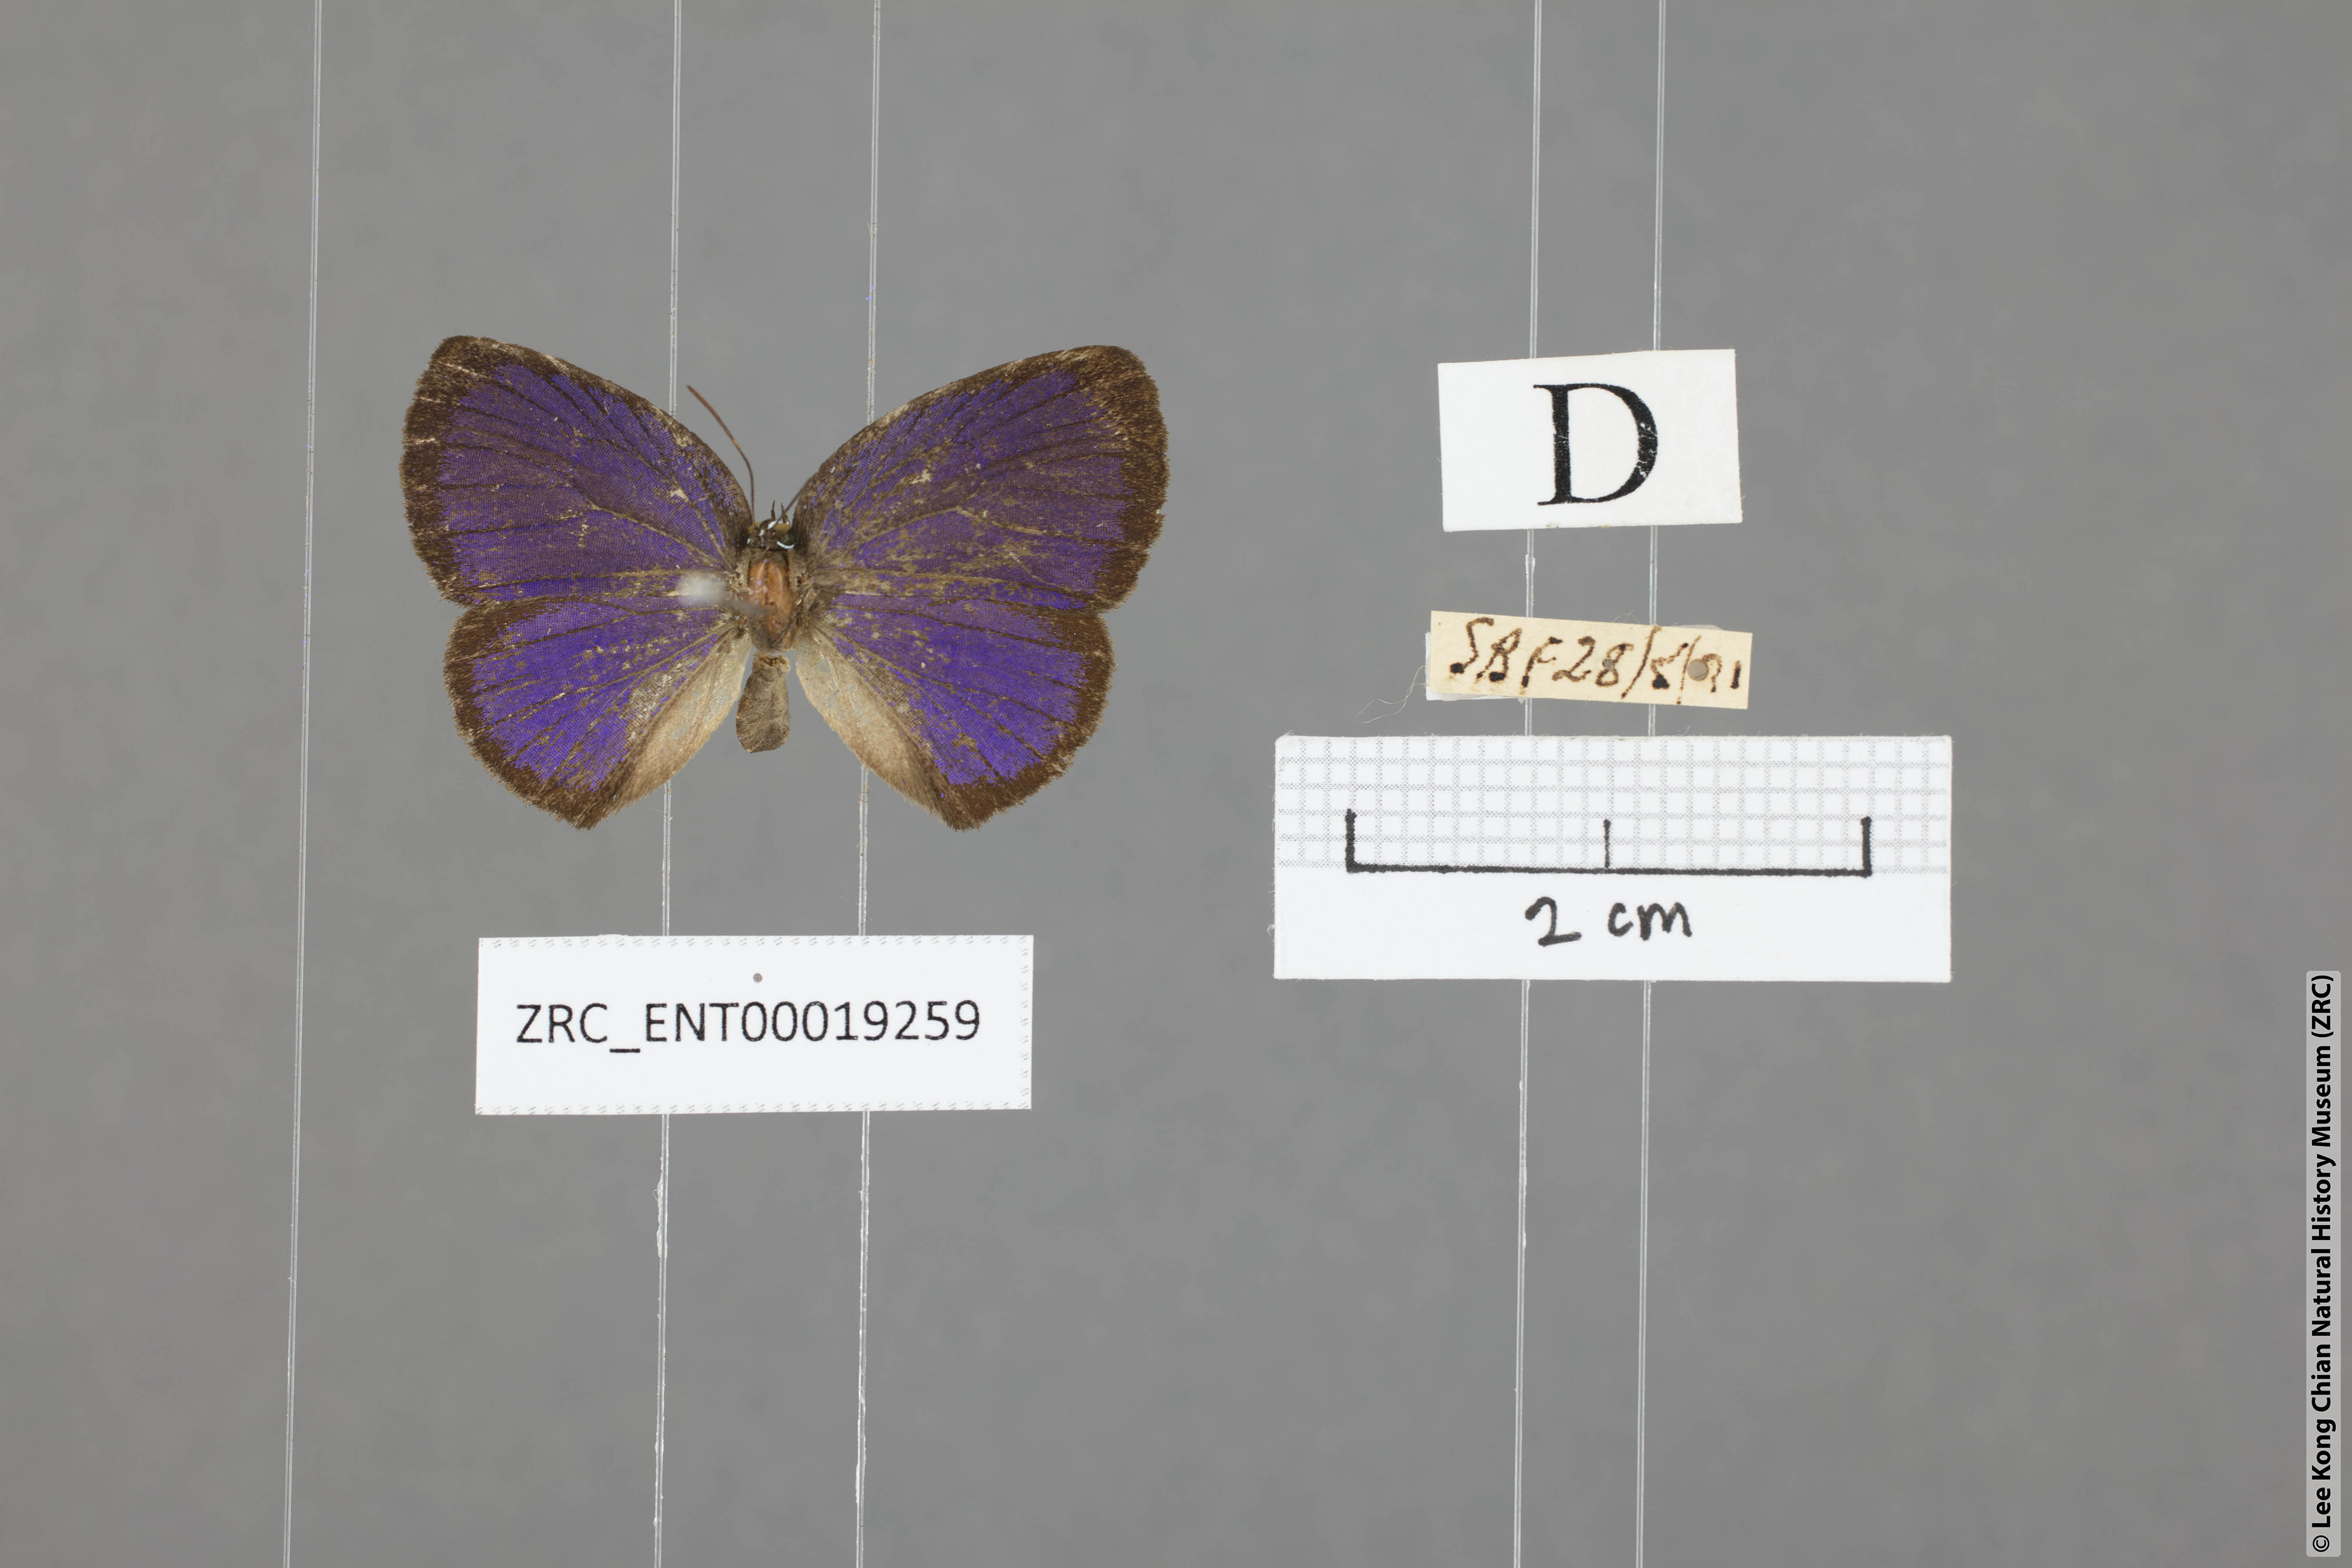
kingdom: Animalia
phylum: Arthropoda
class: Insecta
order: Lepidoptera
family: Lycaenidae
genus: Arhopala
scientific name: Arhopala avathina
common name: Lunulate yellow oakblue
